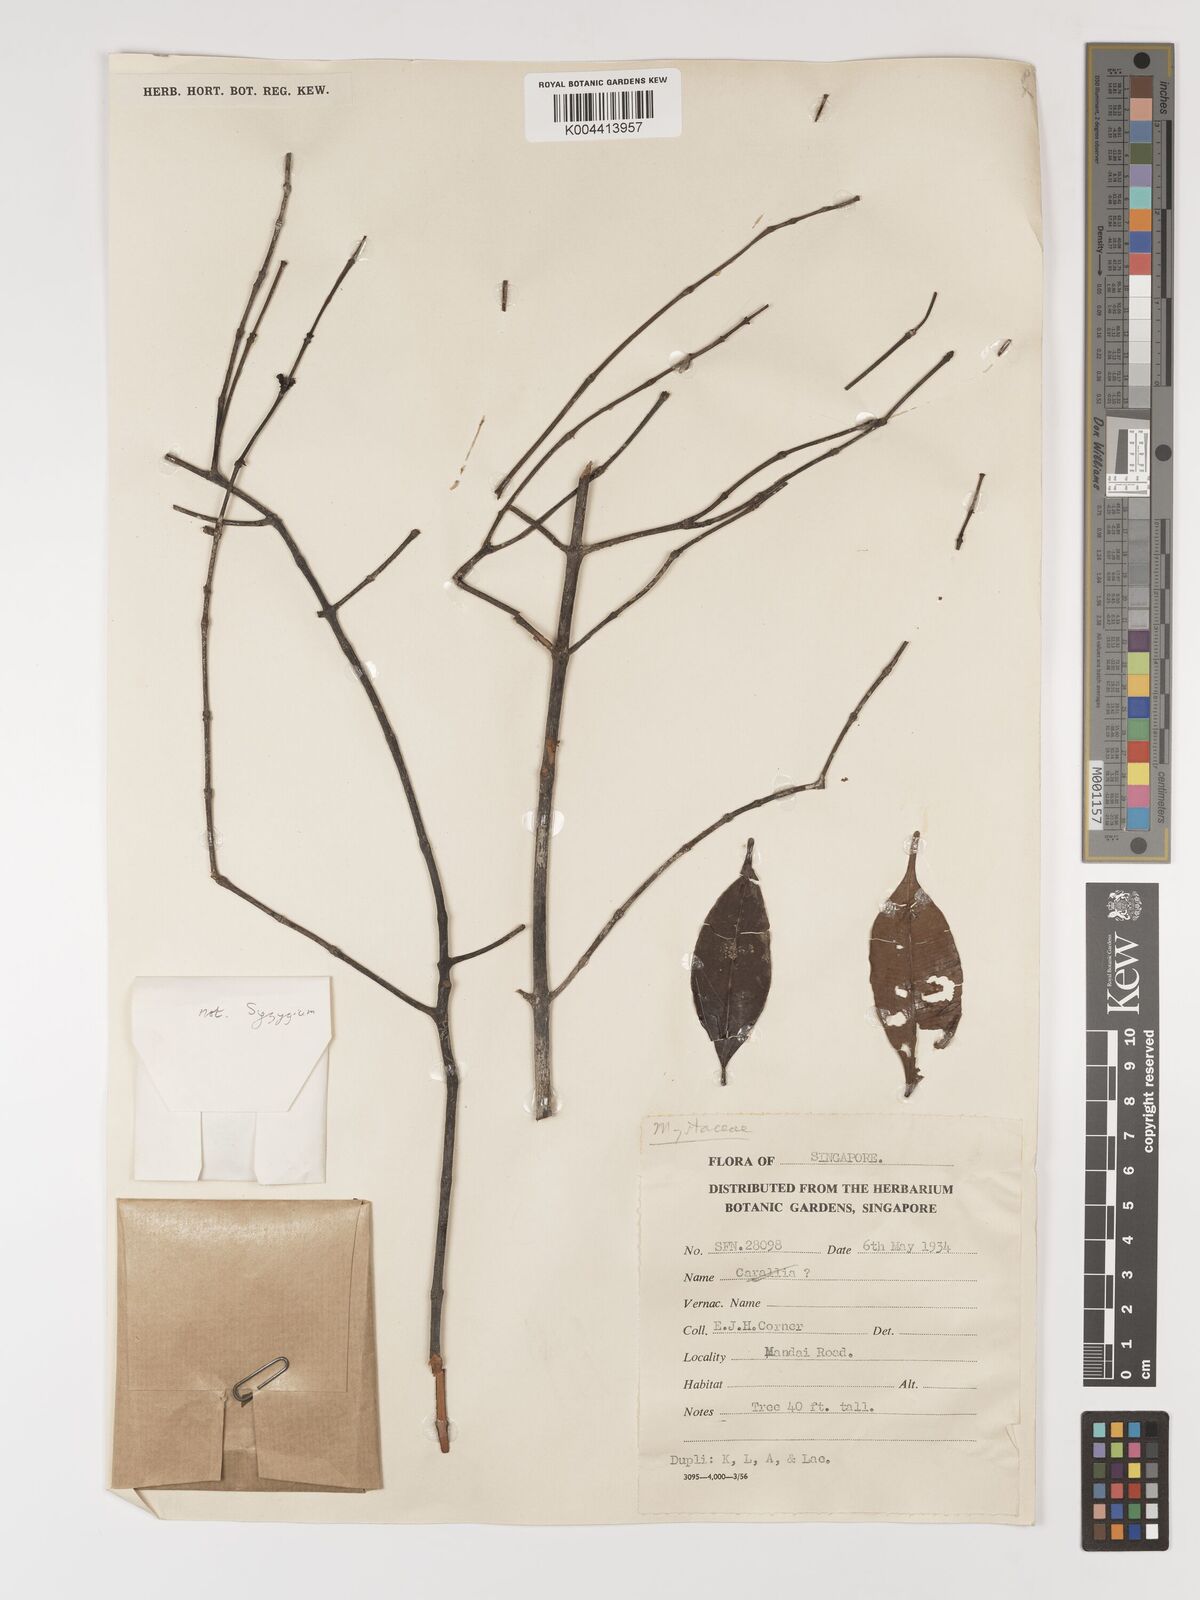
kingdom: Plantae
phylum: Tracheophyta
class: Magnoliopsida
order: Myrtales
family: Myrtaceae
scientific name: Myrtaceae
